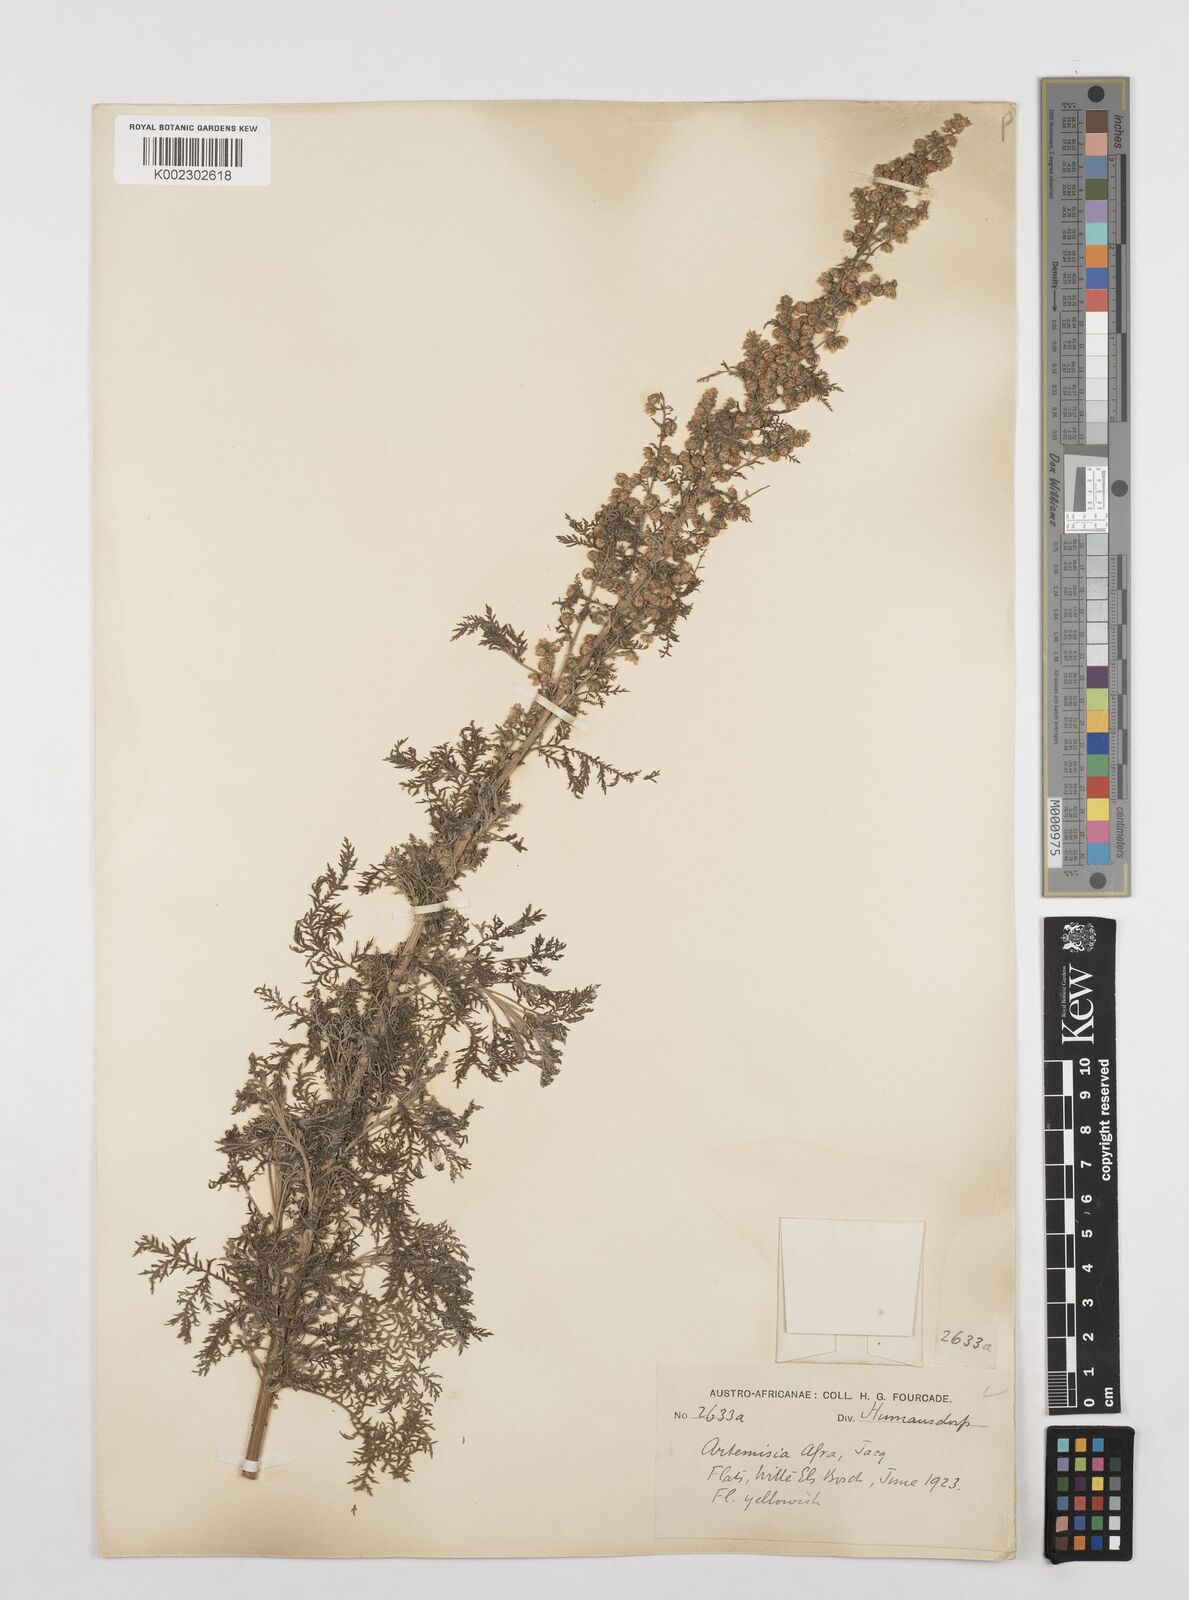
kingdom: Plantae
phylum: Tracheophyta
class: Magnoliopsida
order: Asterales
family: Asteraceae
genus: Artemisia
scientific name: Artemisia afra
